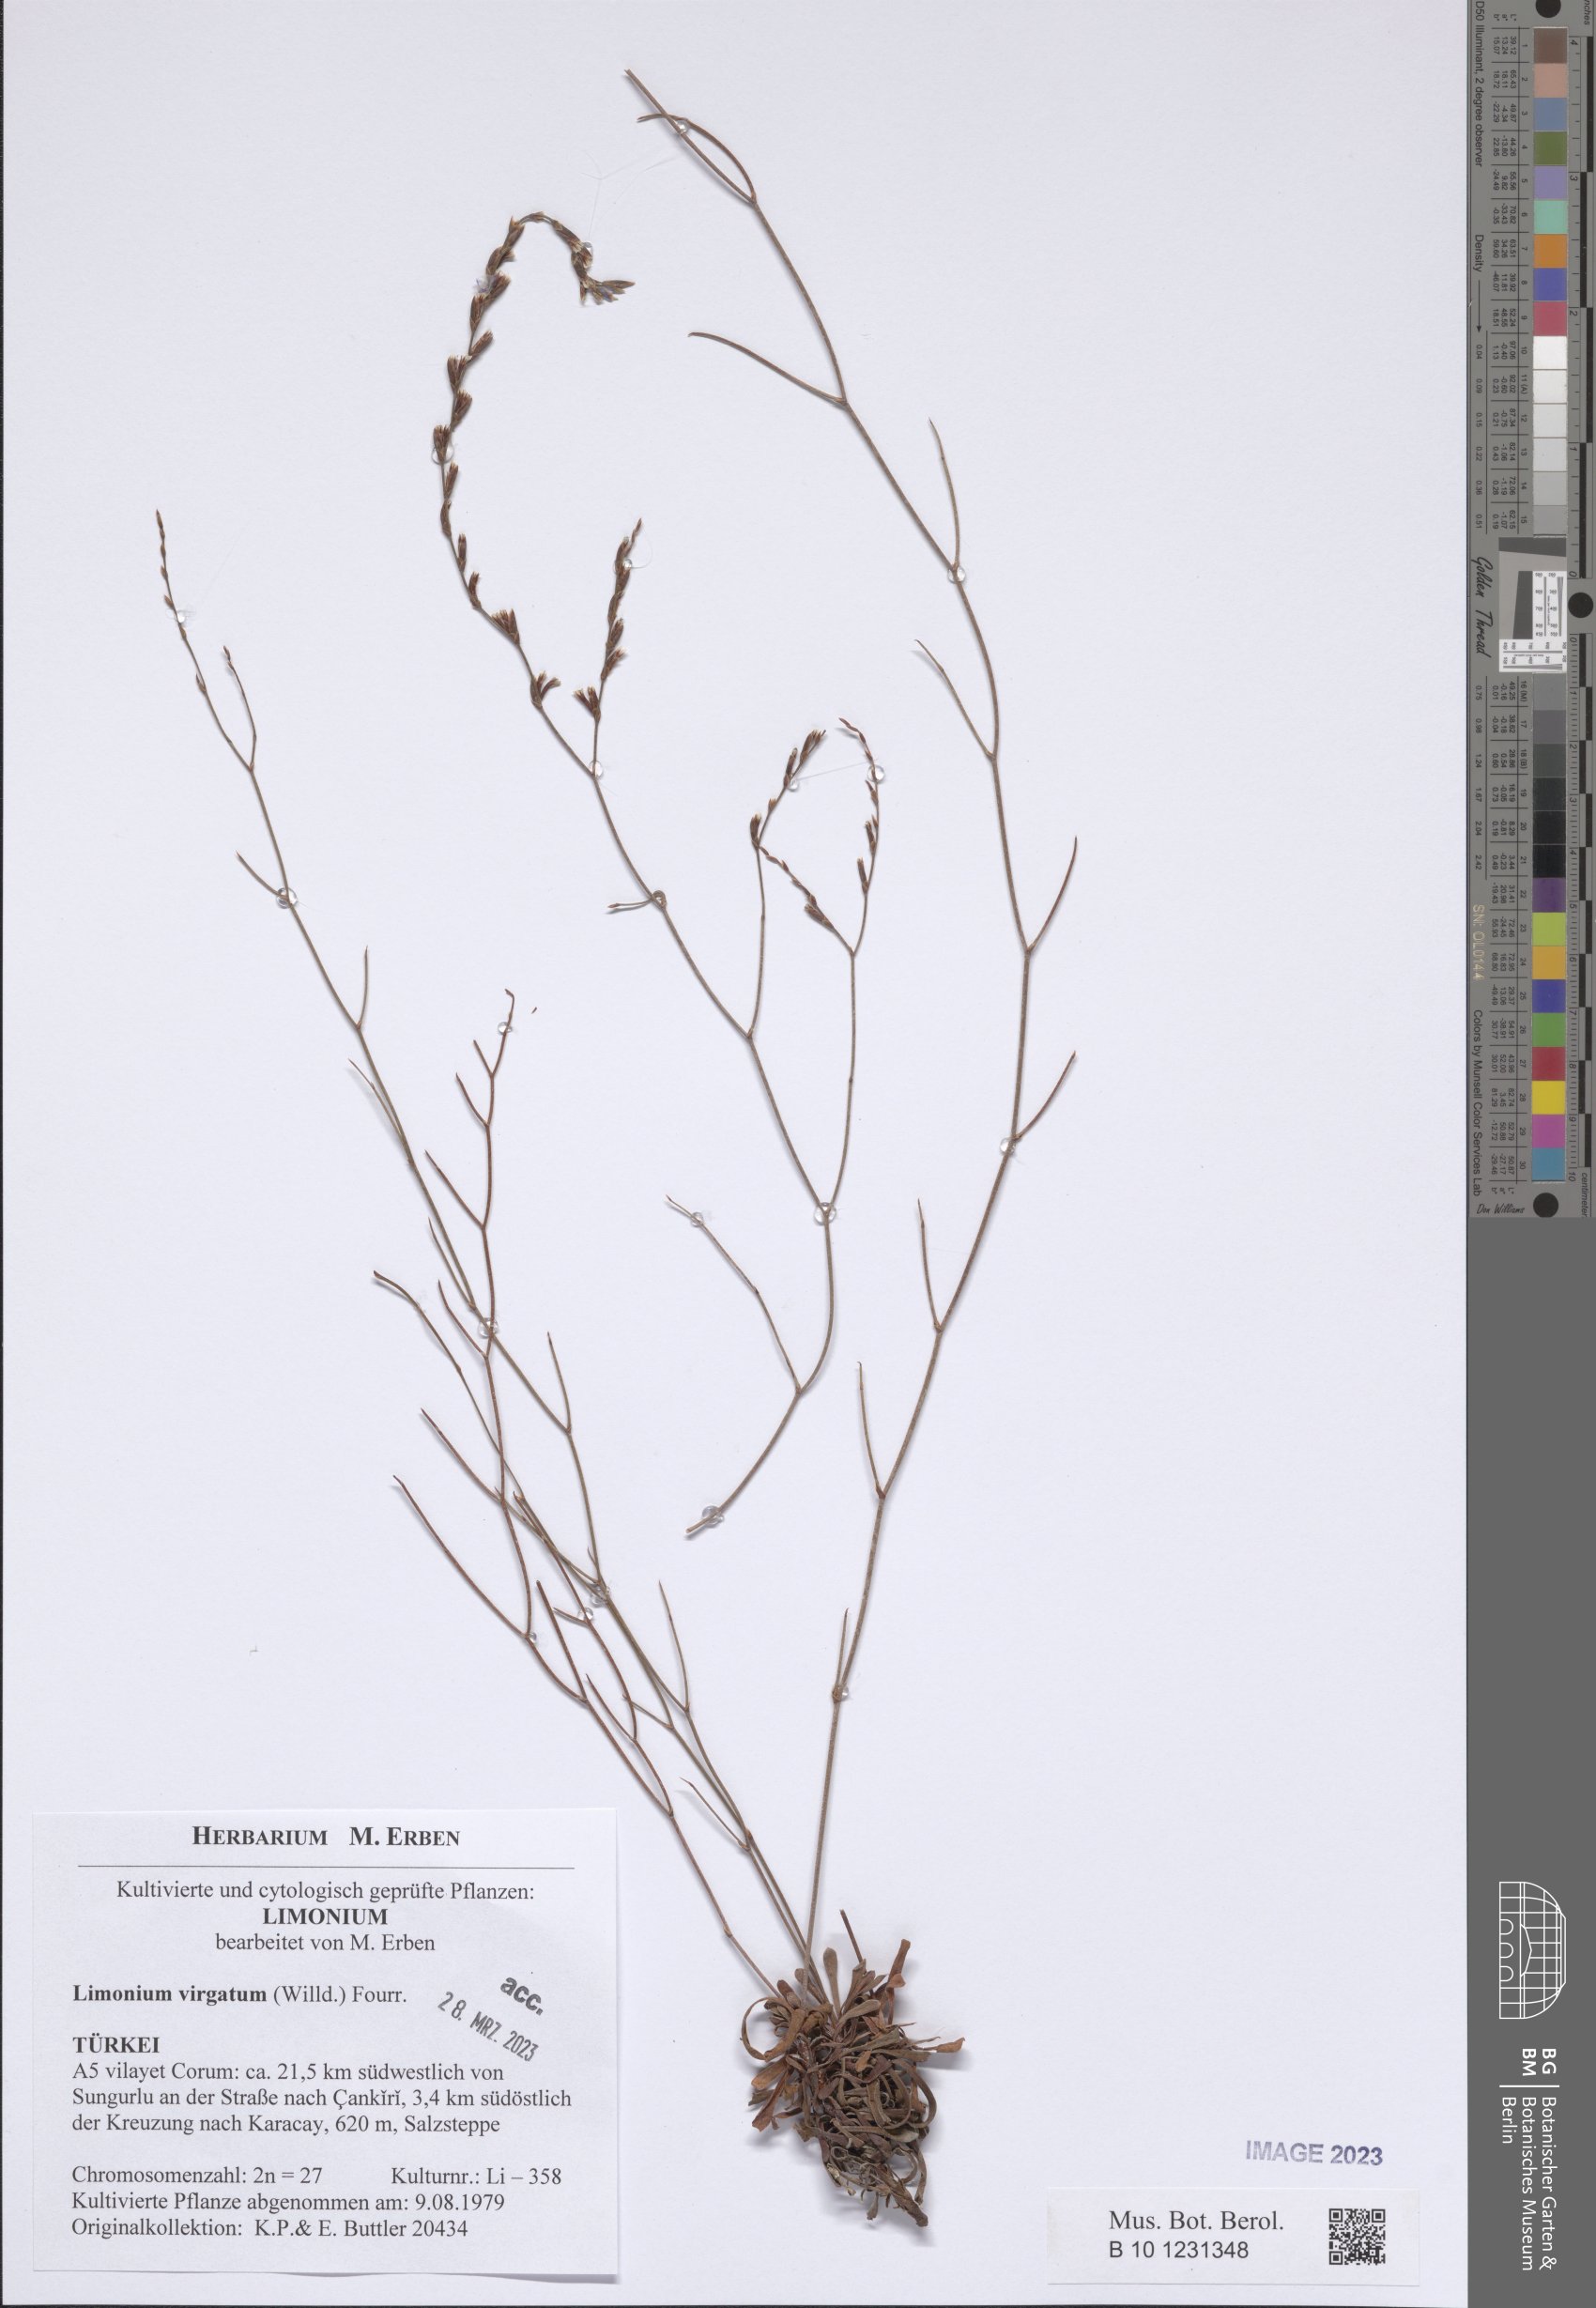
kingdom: Plantae
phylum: Tracheophyta
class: Magnoliopsida
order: Caryophyllales
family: Plumbaginaceae
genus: Limonium
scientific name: Limonium virgatum
